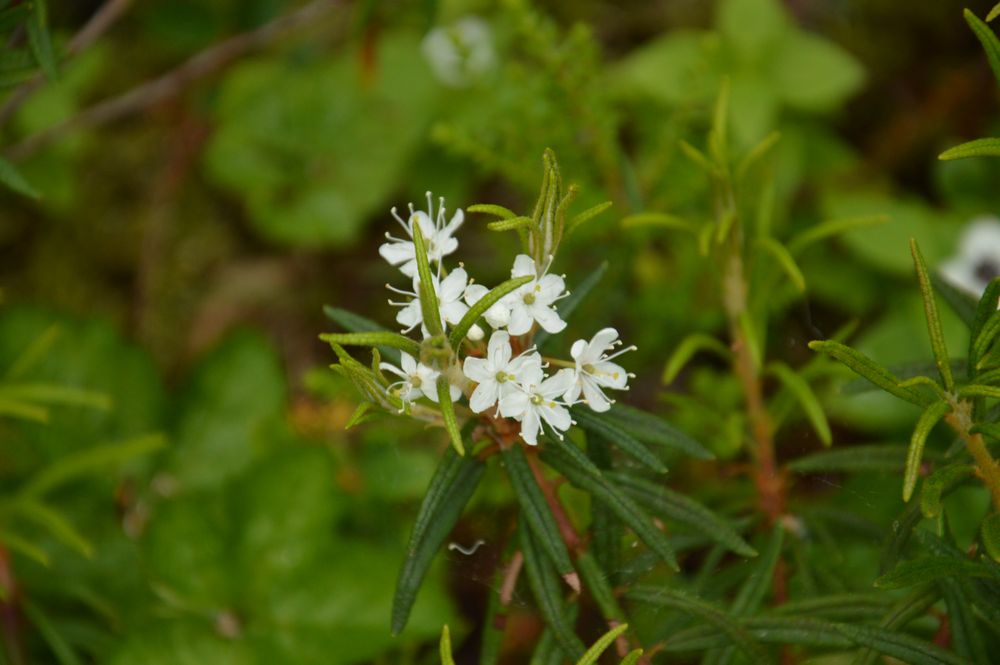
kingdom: Plantae
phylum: Tracheophyta
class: Magnoliopsida
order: Ericales
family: Ericaceae
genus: Rhododendron
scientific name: Rhododendron
